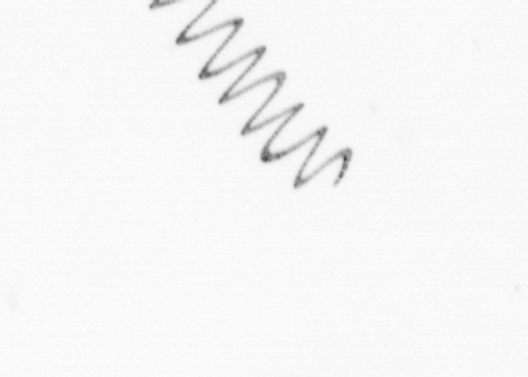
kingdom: Chromista
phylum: Ochrophyta
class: Bacillariophyceae
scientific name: Bacillariophyceae
